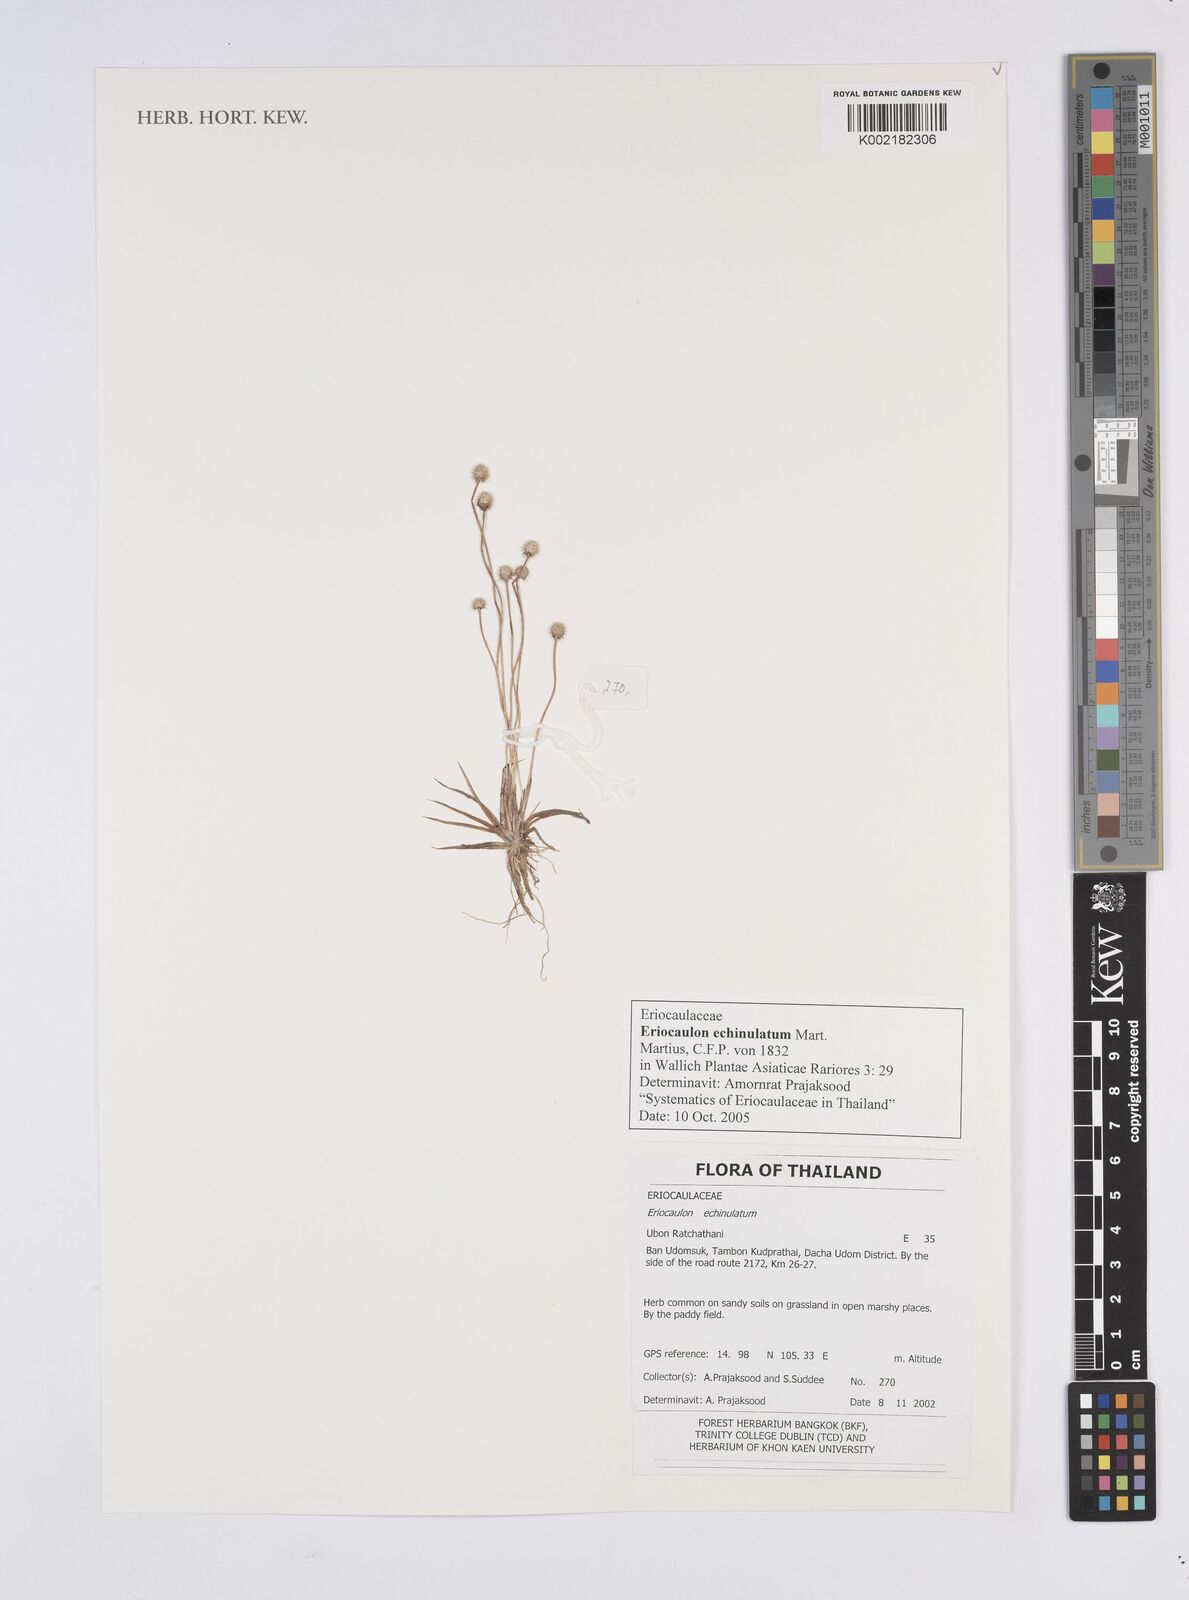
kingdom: Plantae
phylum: Tracheophyta
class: Liliopsida
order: Poales
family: Eriocaulaceae
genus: Eriocaulon
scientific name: Eriocaulon echinulatum
